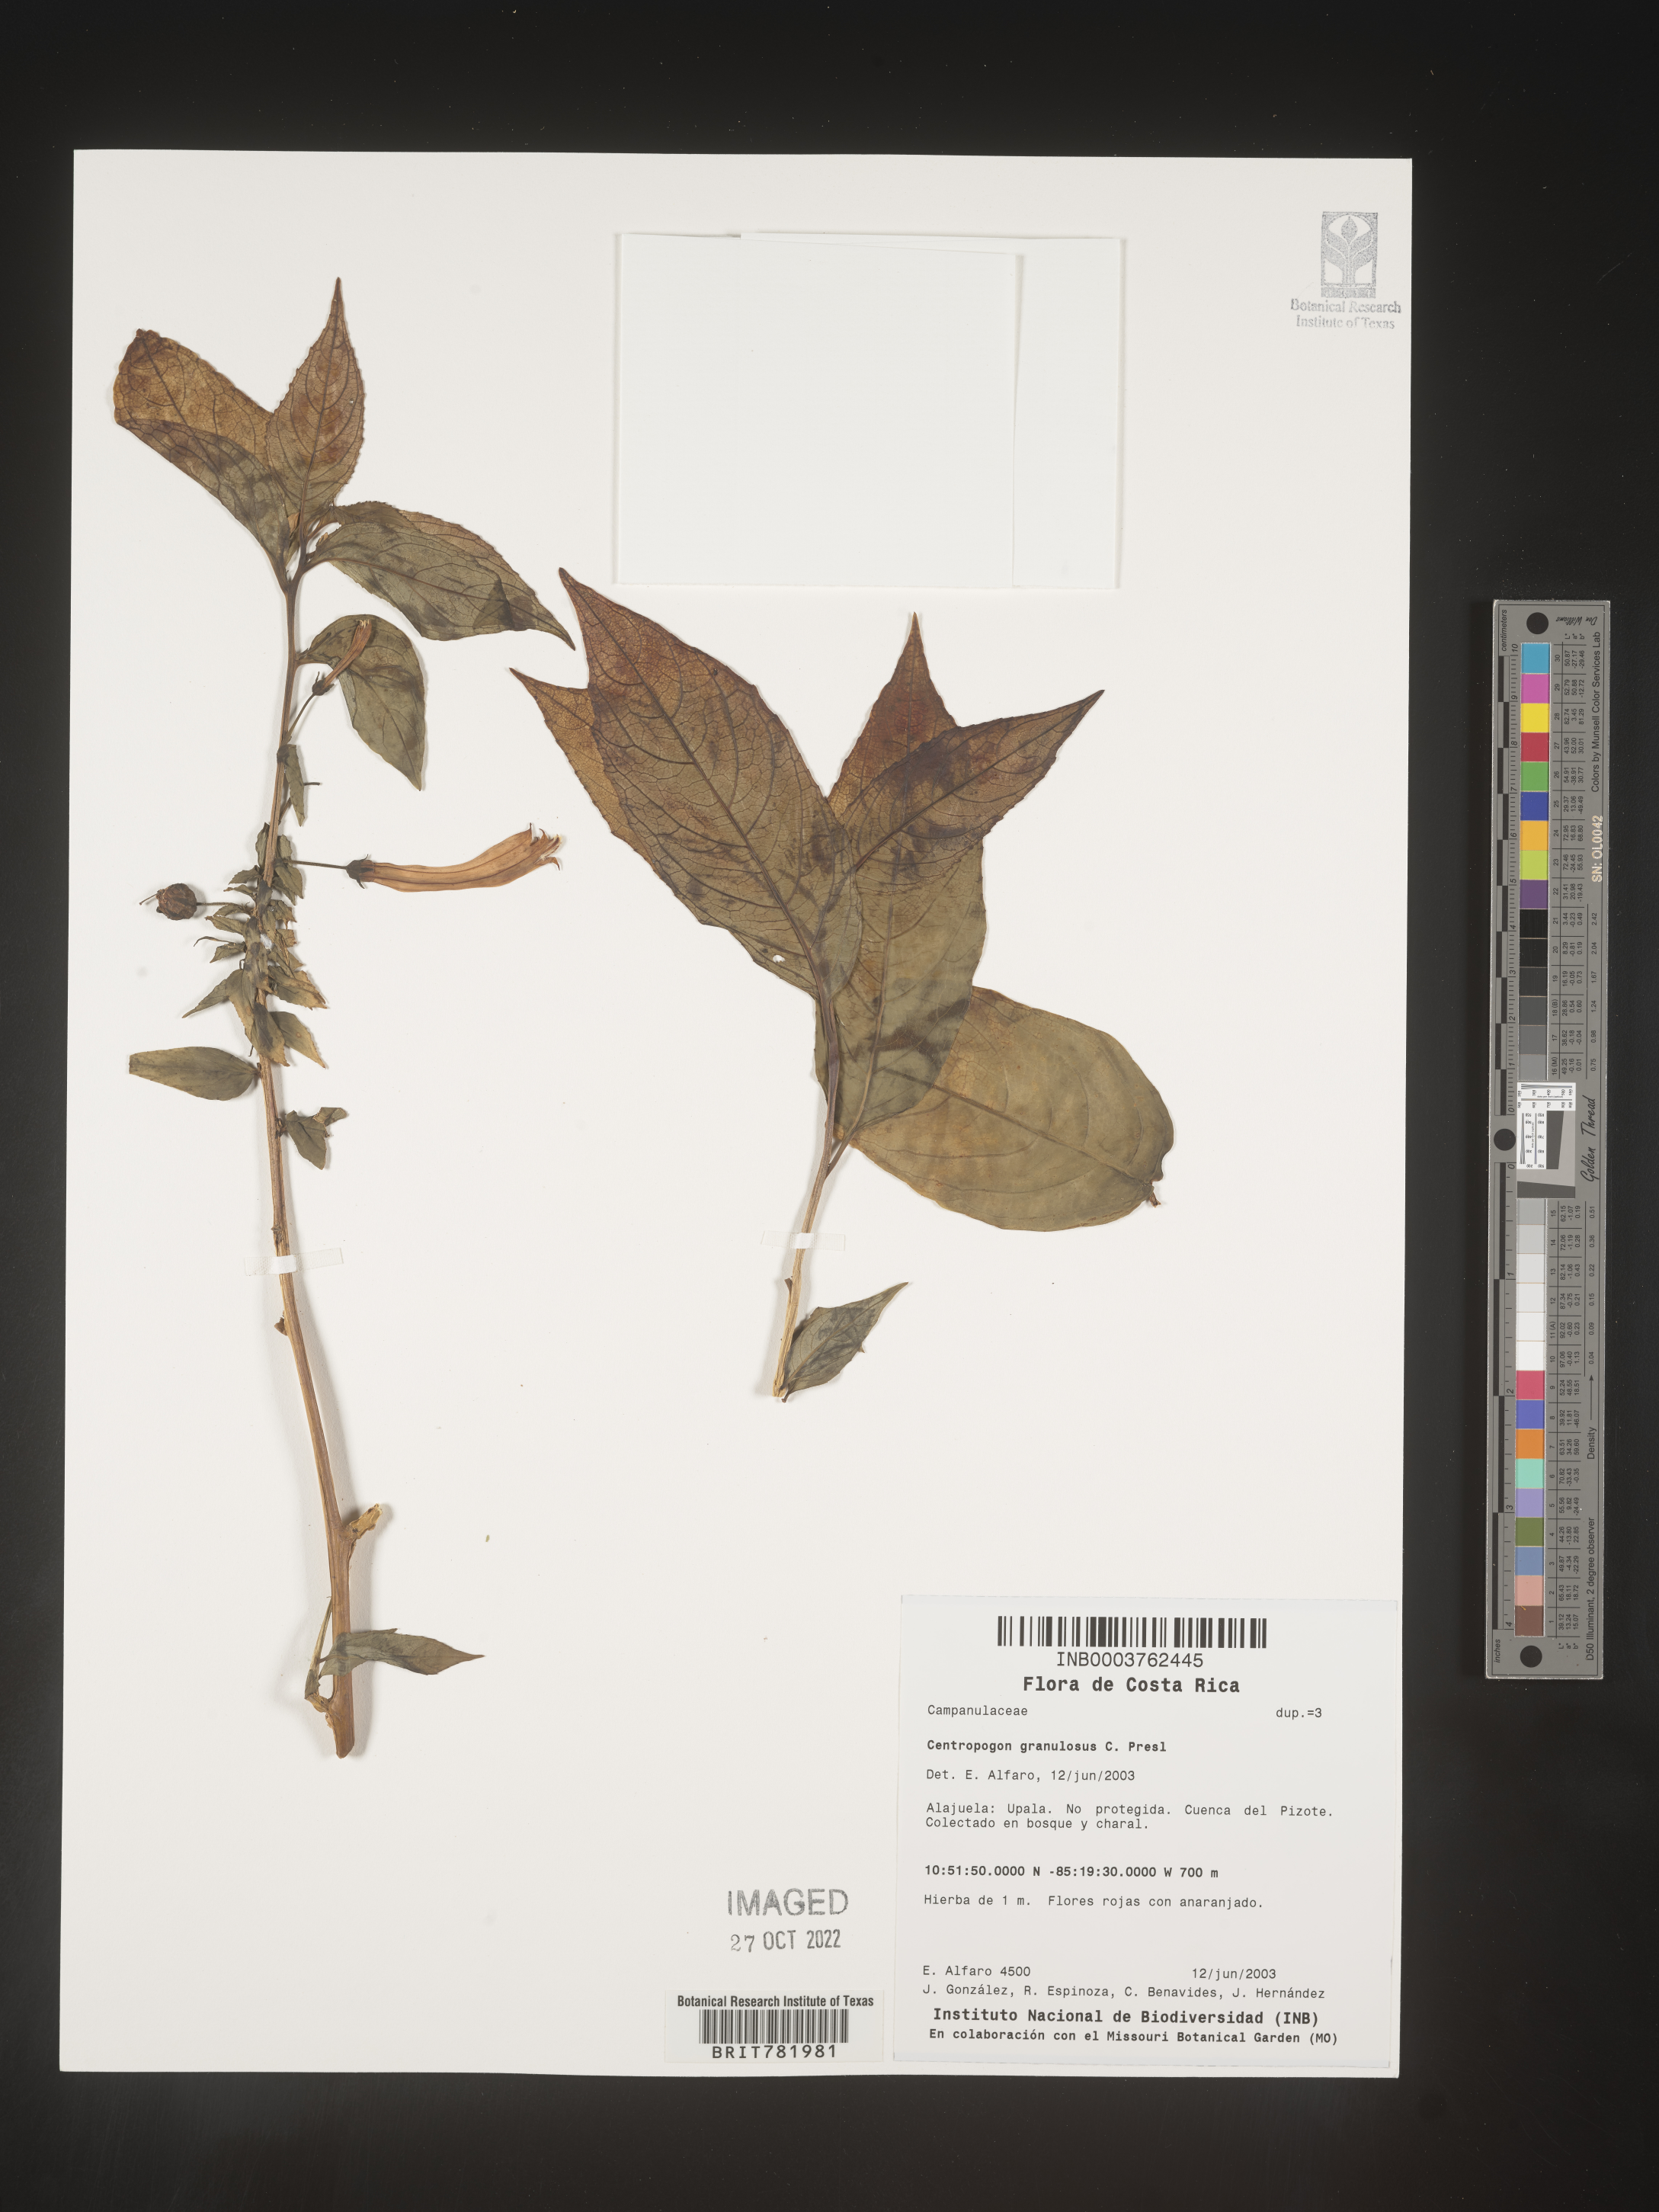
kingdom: Plantae
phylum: Tracheophyta
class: Magnoliopsida
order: Asterales
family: Campanulaceae
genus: Centropogon
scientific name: Centropogon
